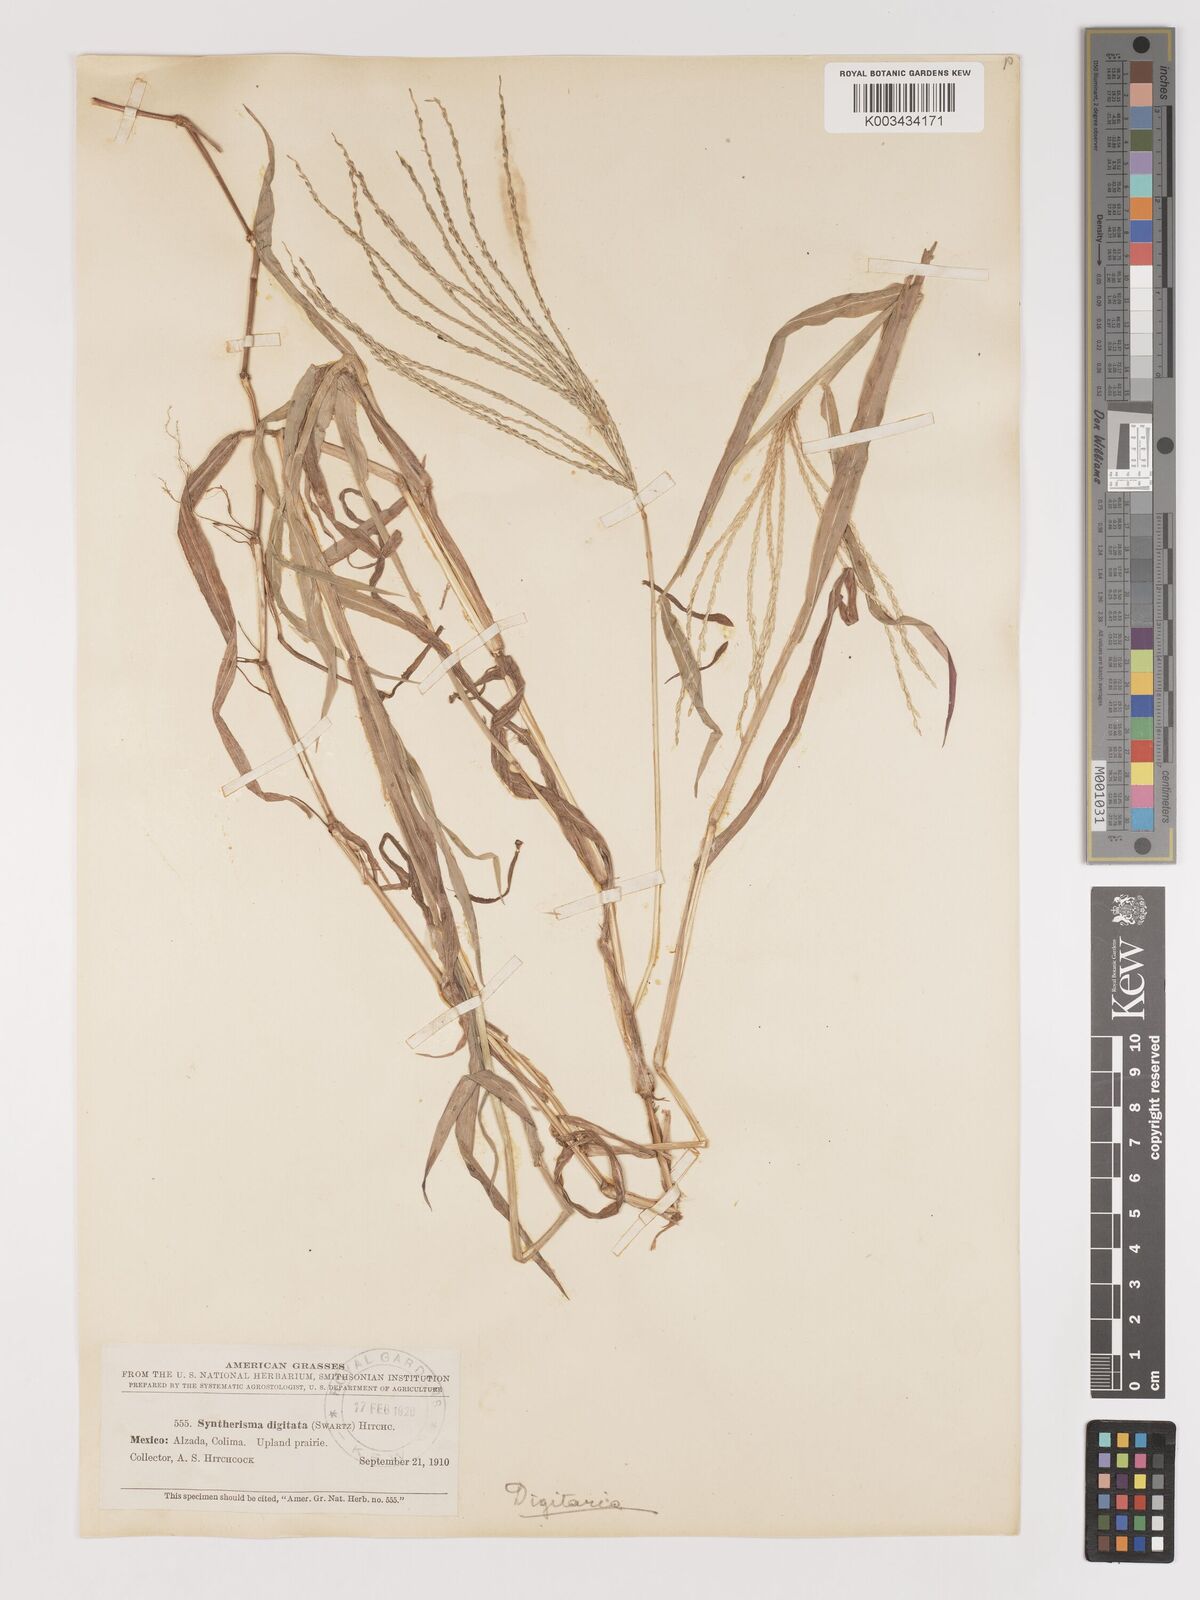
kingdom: Plantae
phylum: Tracheophyta
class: Liliopsida
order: Poales
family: Poaceae
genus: Digitaria
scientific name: Digitaria nuda
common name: Naked crabgrass
